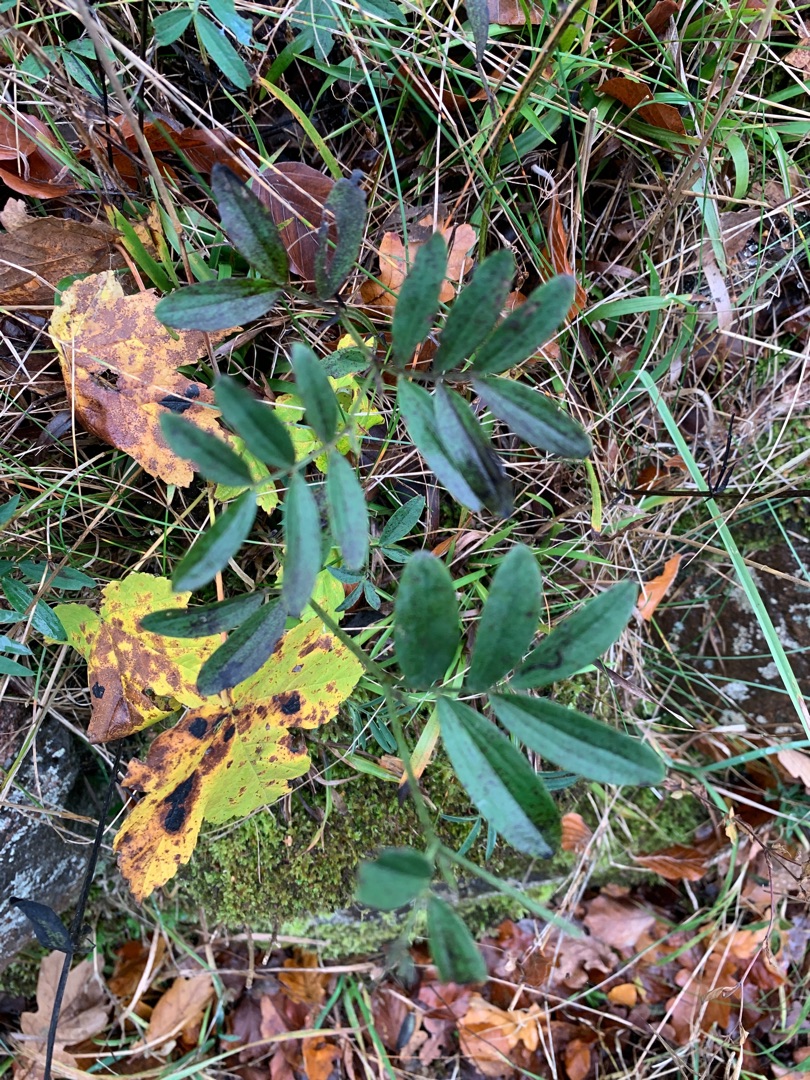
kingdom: Plantae
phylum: Tracheophyta
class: Magnoliopsida
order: Fabales
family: Fabaceae
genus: Lathyrus
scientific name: Lathyrus linifolius
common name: Krat-fladbælg
